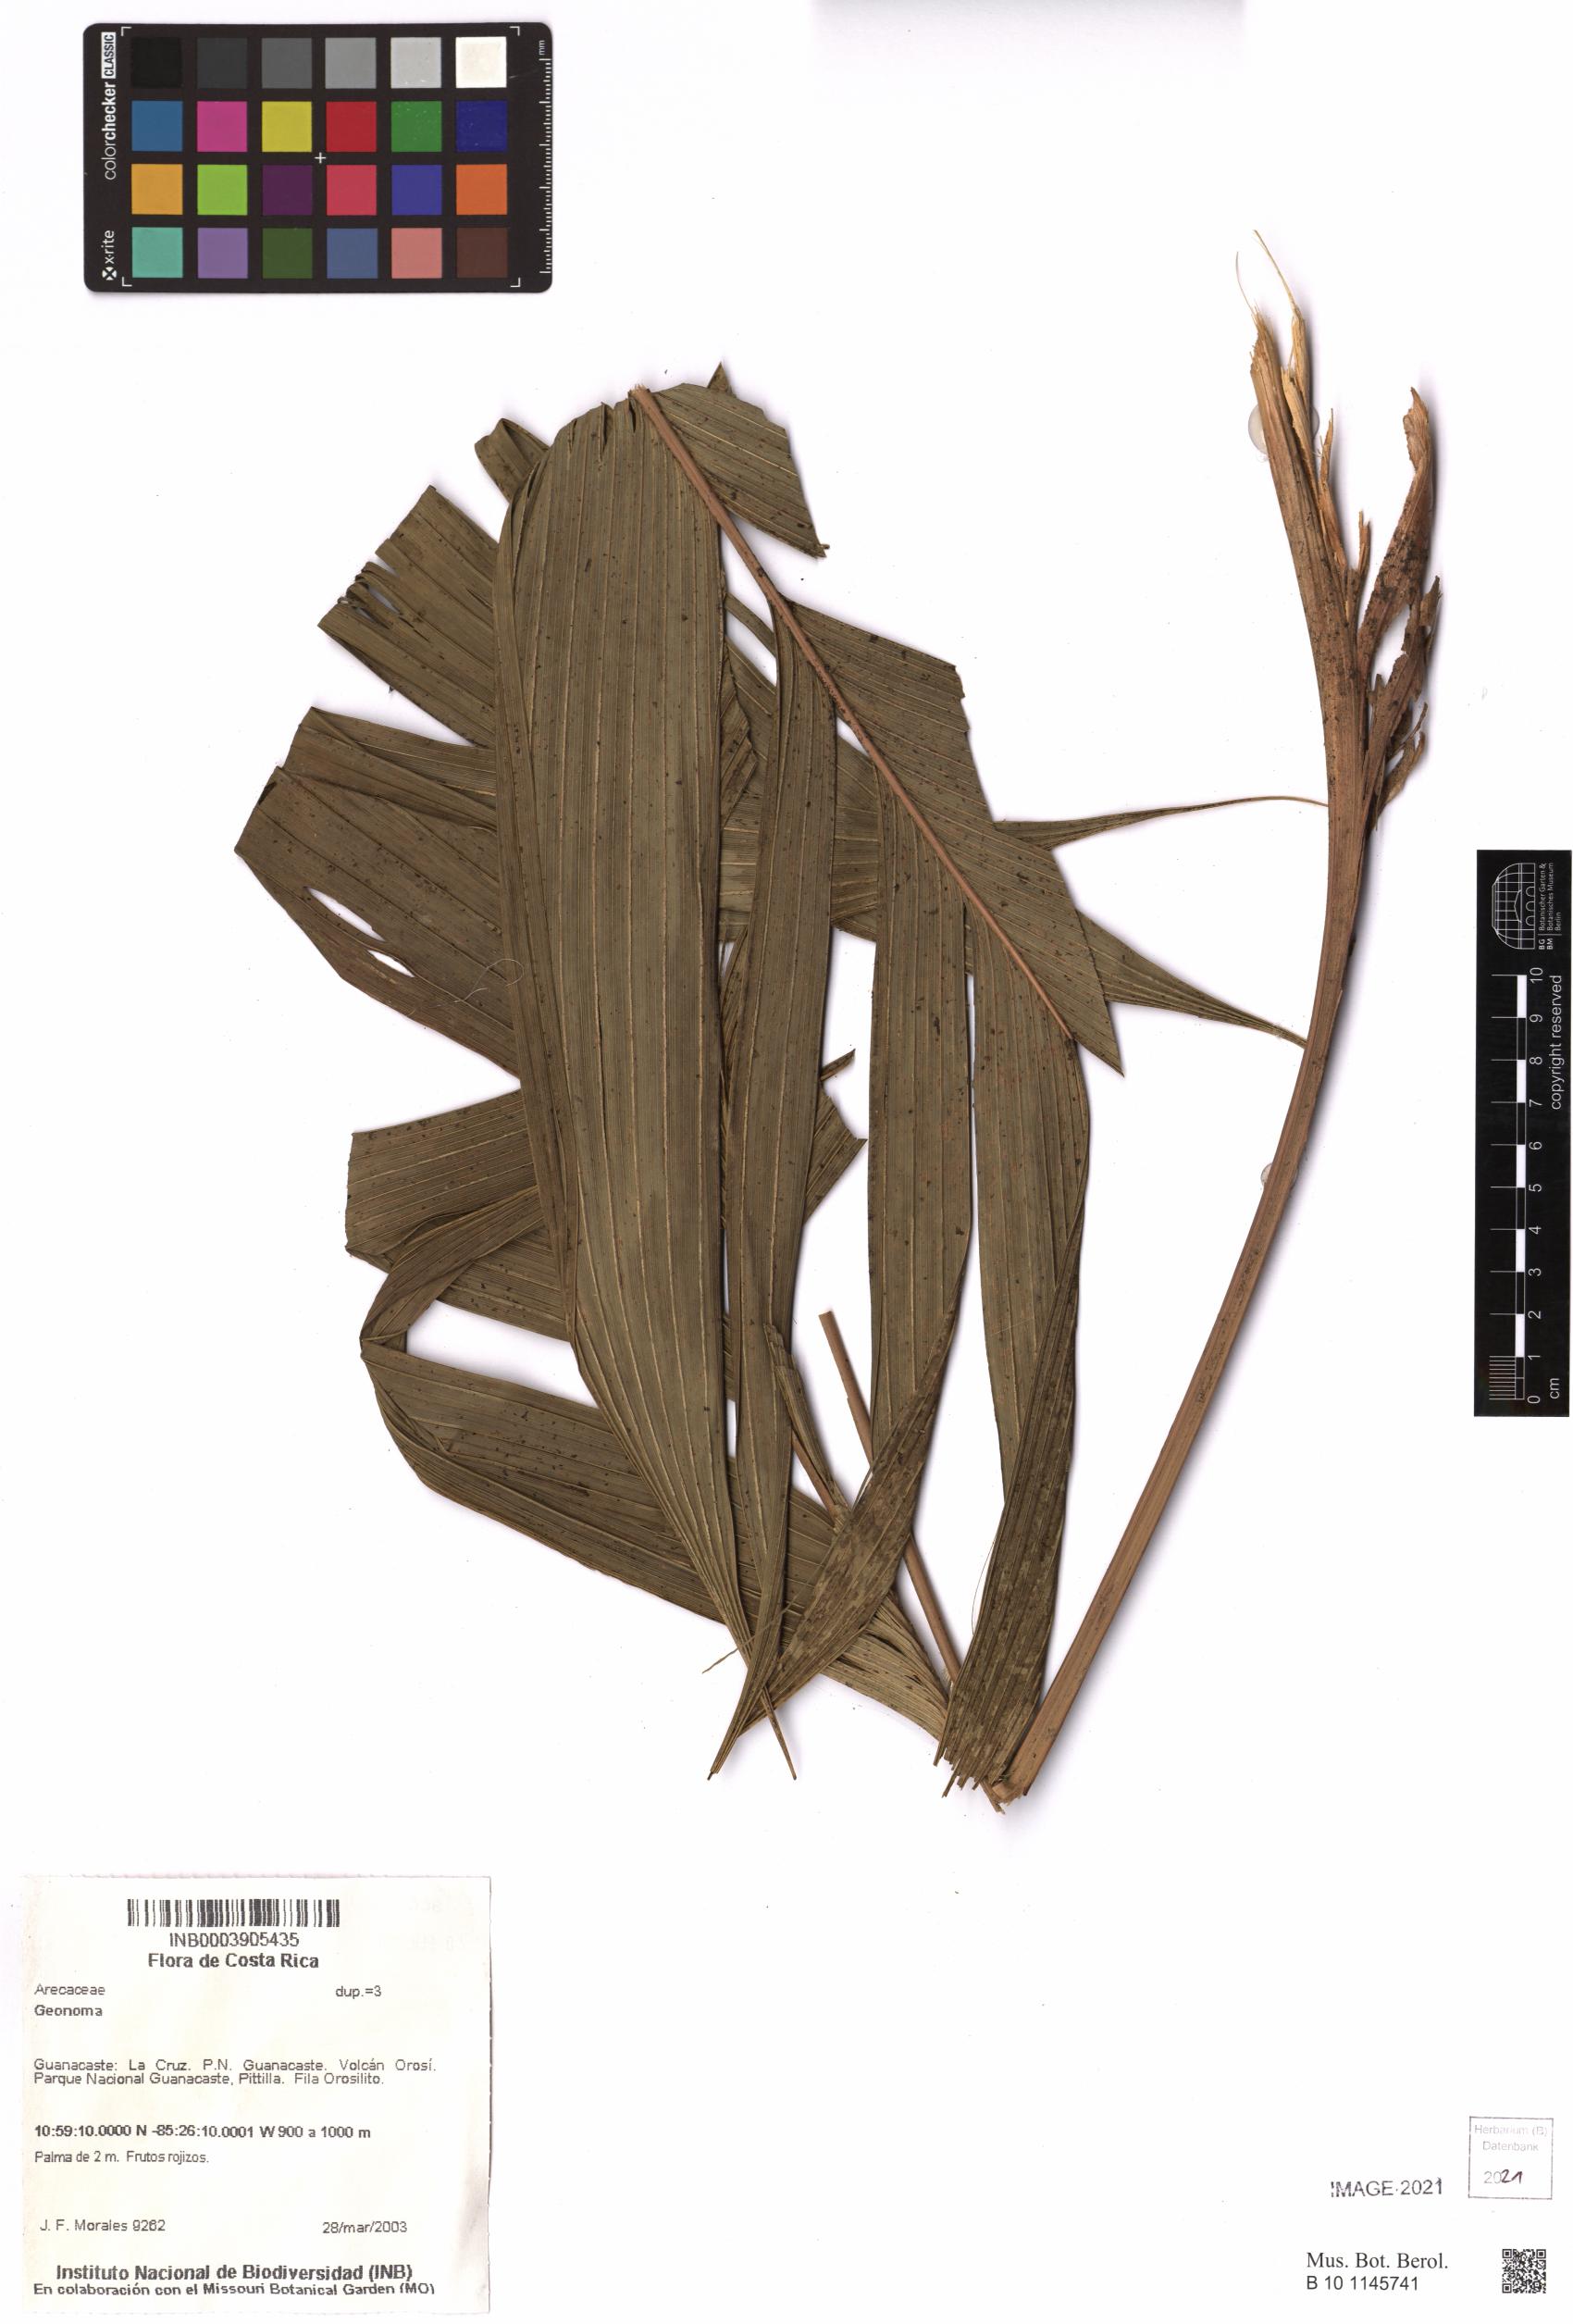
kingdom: Plantae
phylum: Tracheophyta
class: Liliopsida
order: Arecales
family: Arecaceae
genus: Geonoma
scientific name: Geonoma
